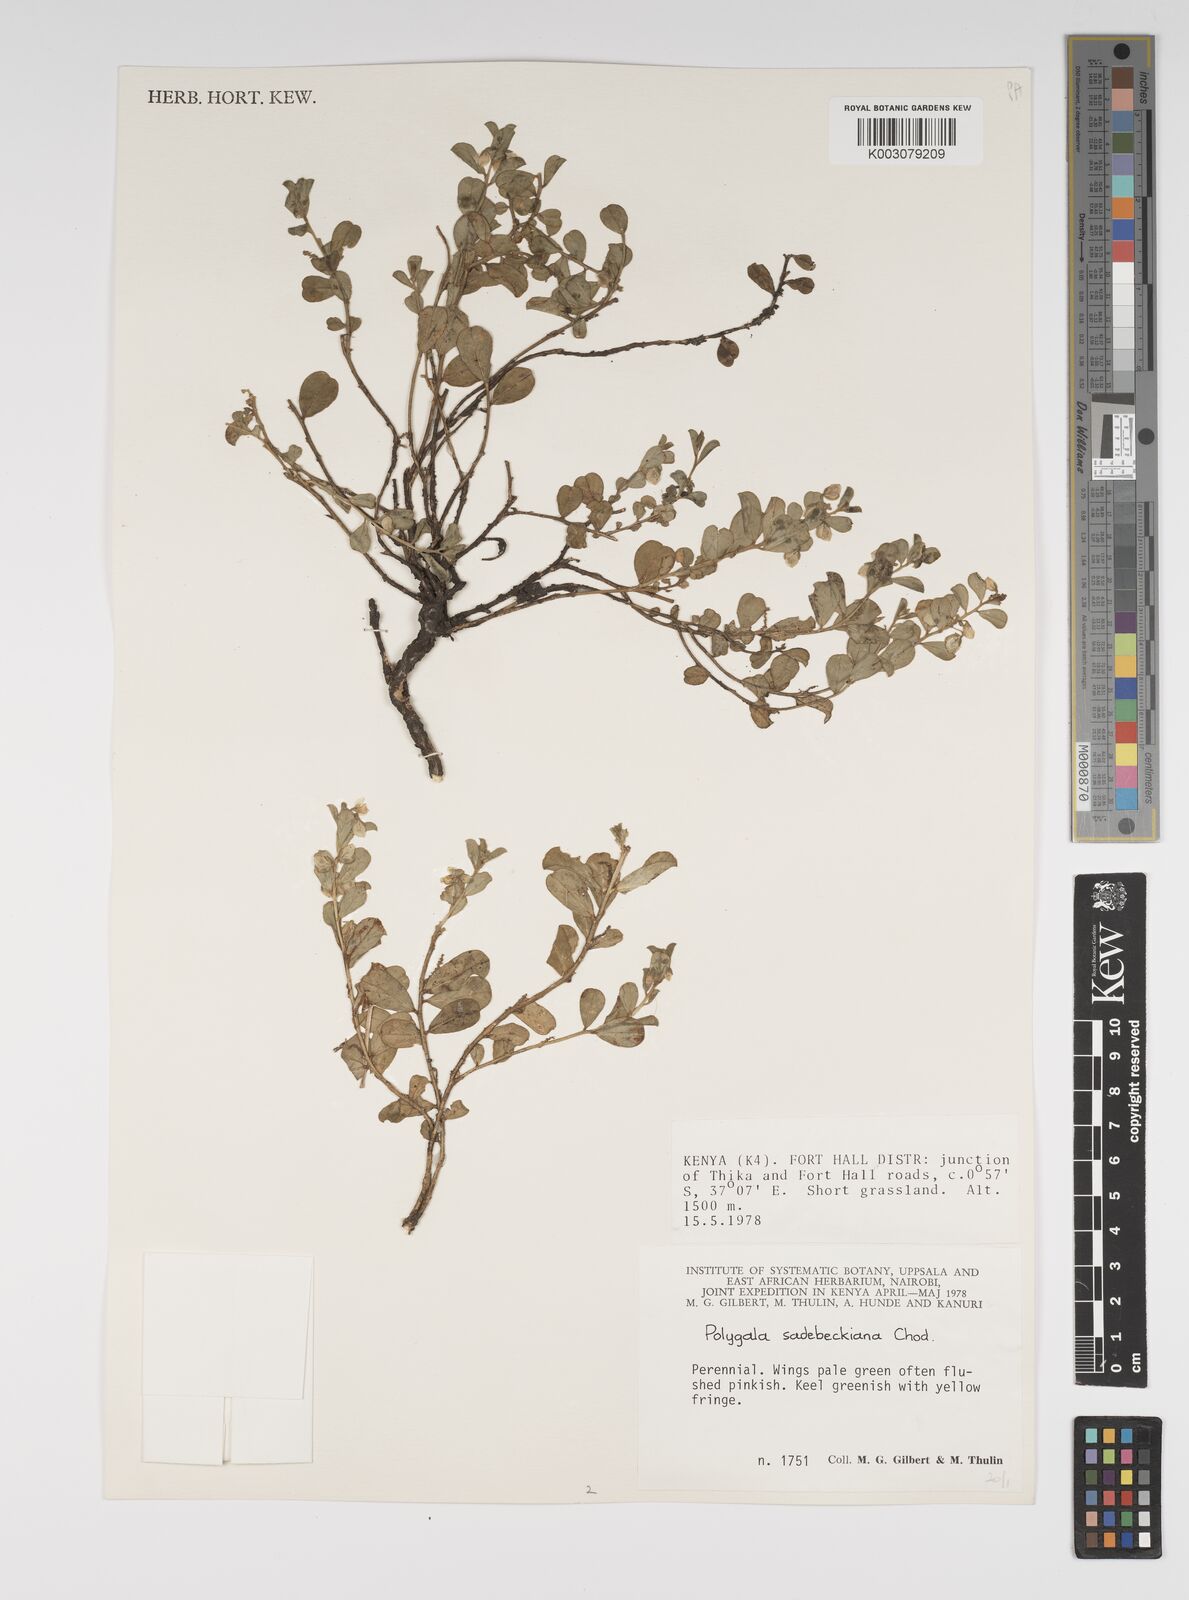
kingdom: Plantae
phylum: Tracheophyta
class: Magnoliopsida
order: Fabales
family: Polygalaceae
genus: Polygala
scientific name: Polygala sadebeckiana
